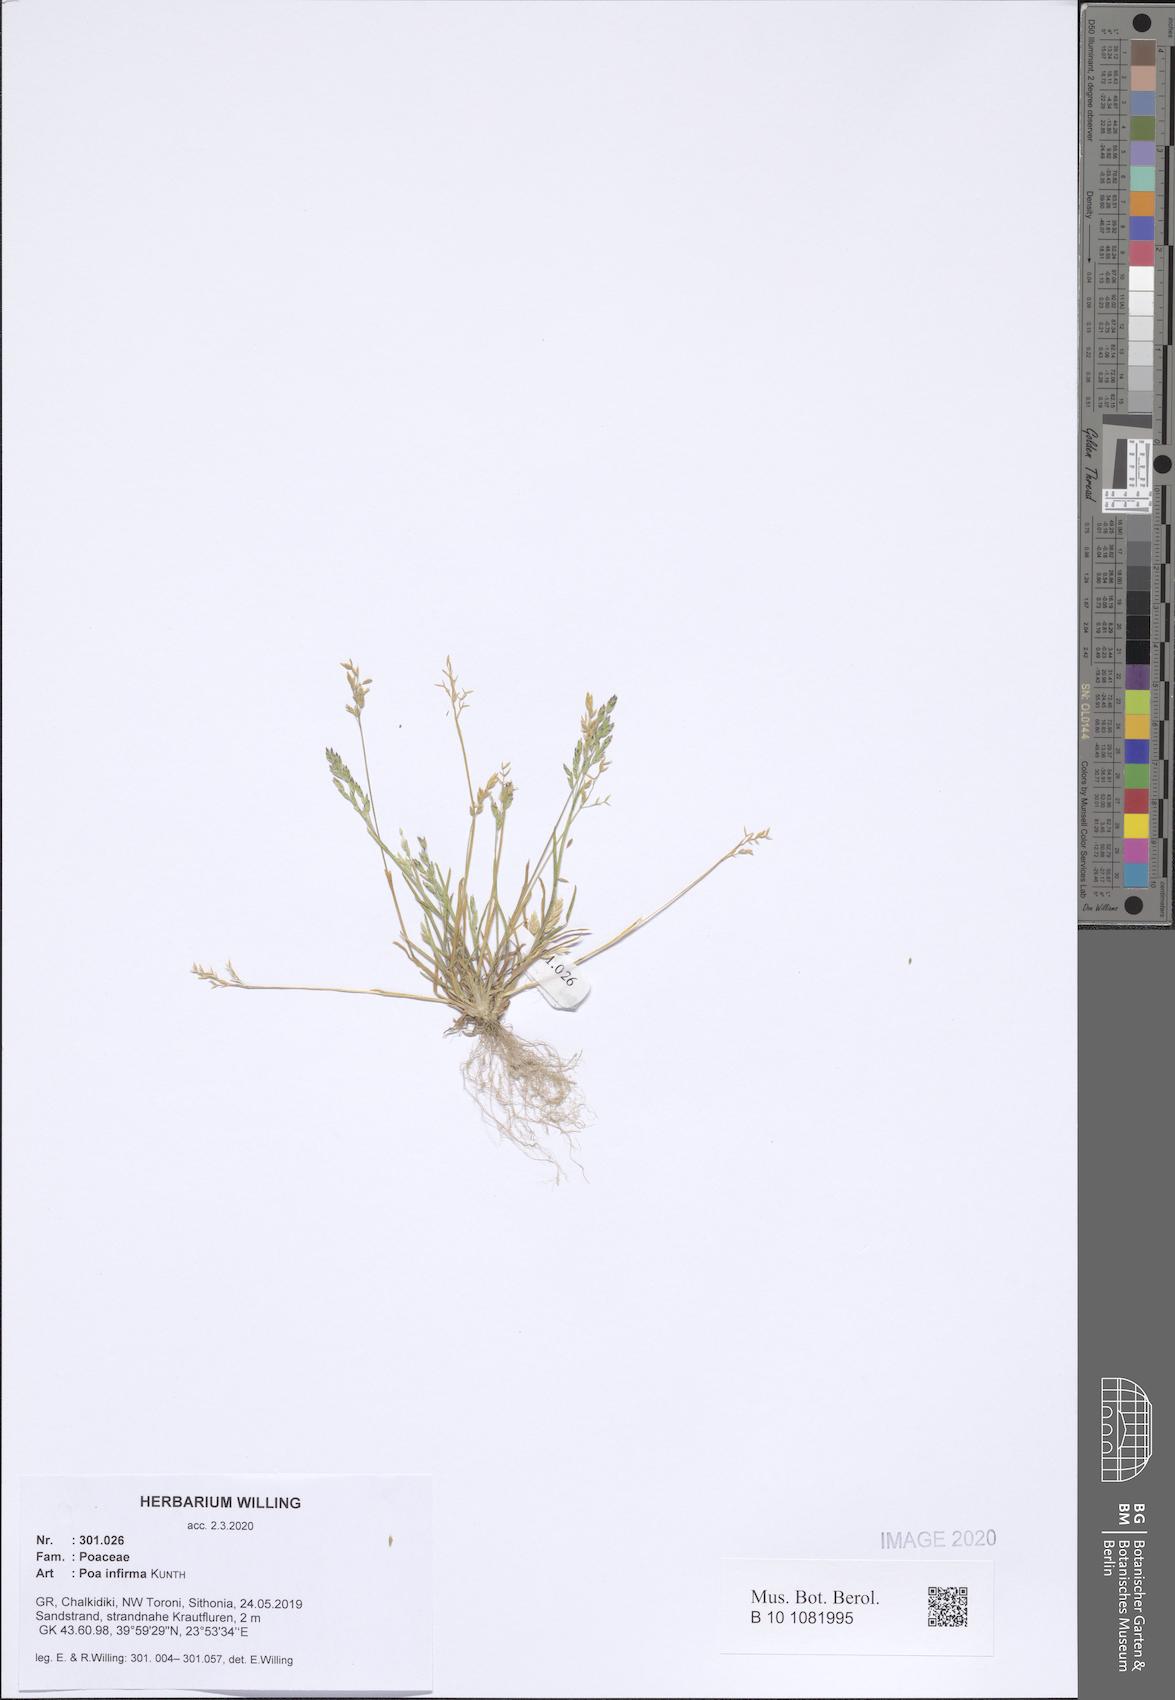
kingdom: Plantae
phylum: Tracheophyta
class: Liliopsida
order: Poales
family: Poaceae
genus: Poa
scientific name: Poa infirma
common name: Weak bluegrass
